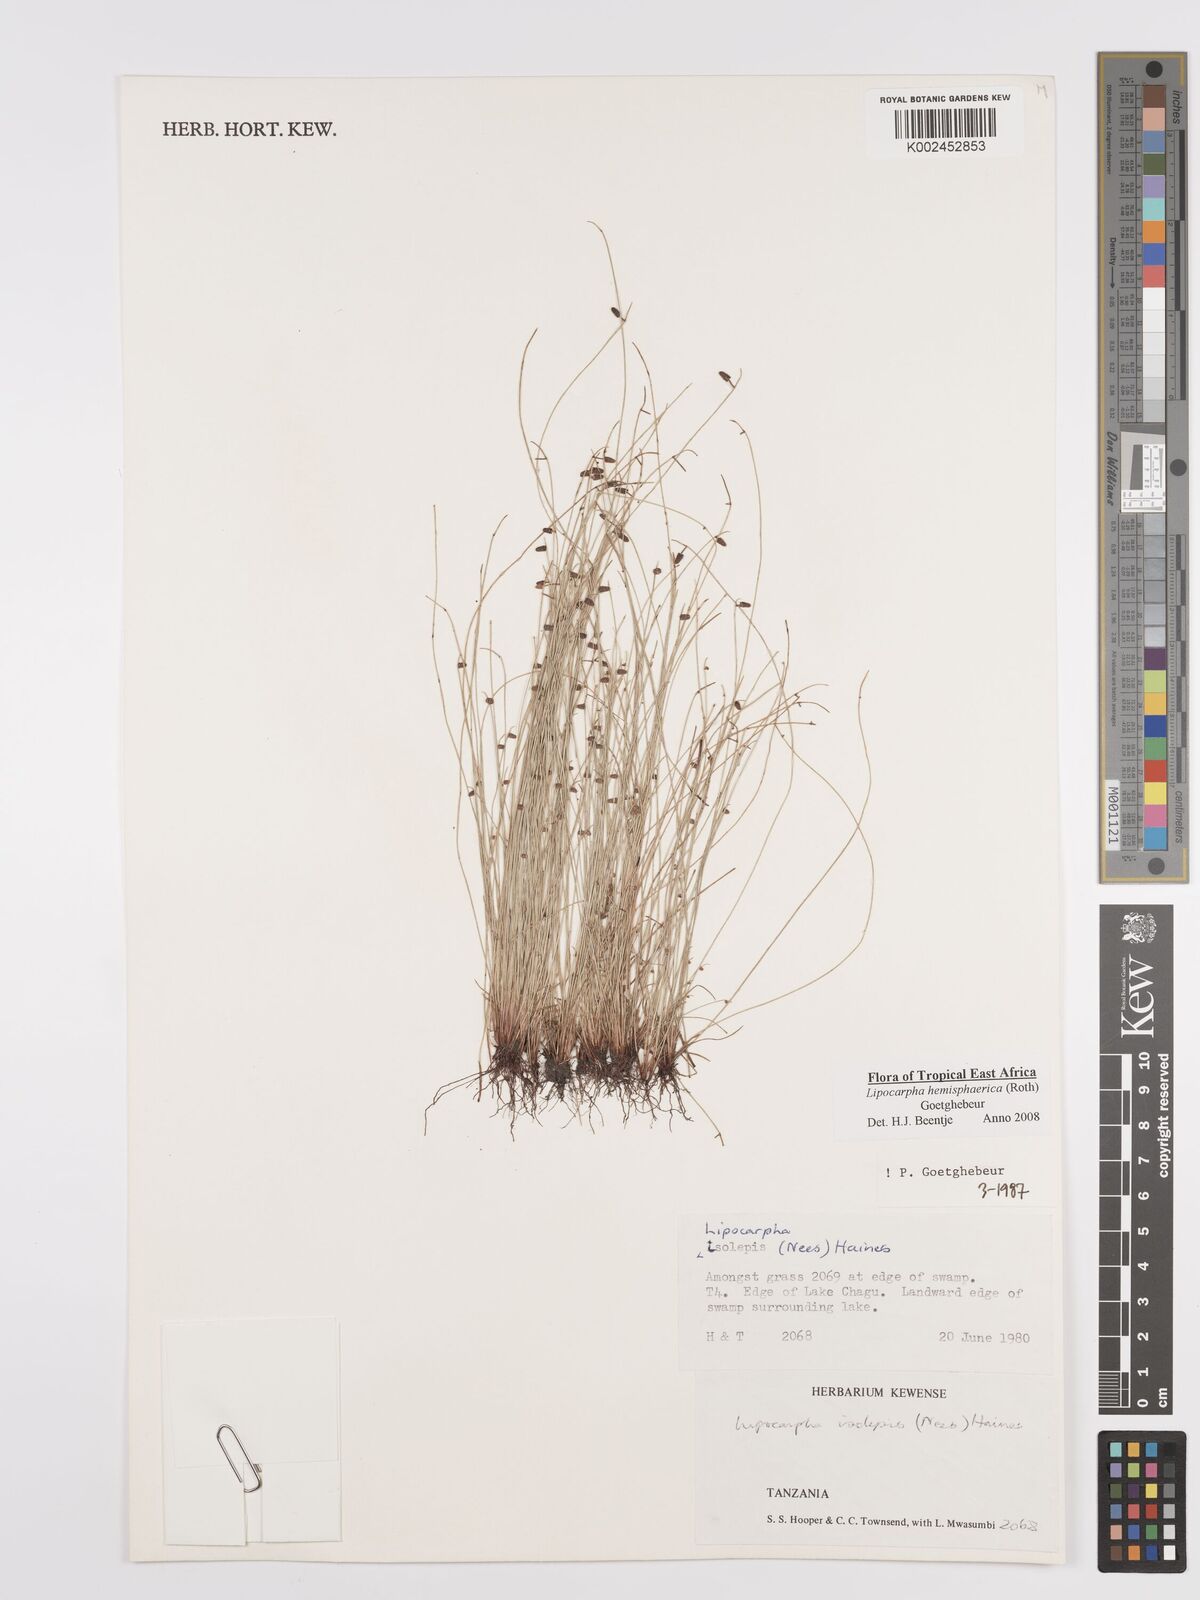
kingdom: Plantae
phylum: Tracheophyta
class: Liliopsida
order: Poales
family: Cyperaceae
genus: Cyperus
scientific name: Cyperus hemisphaericus
